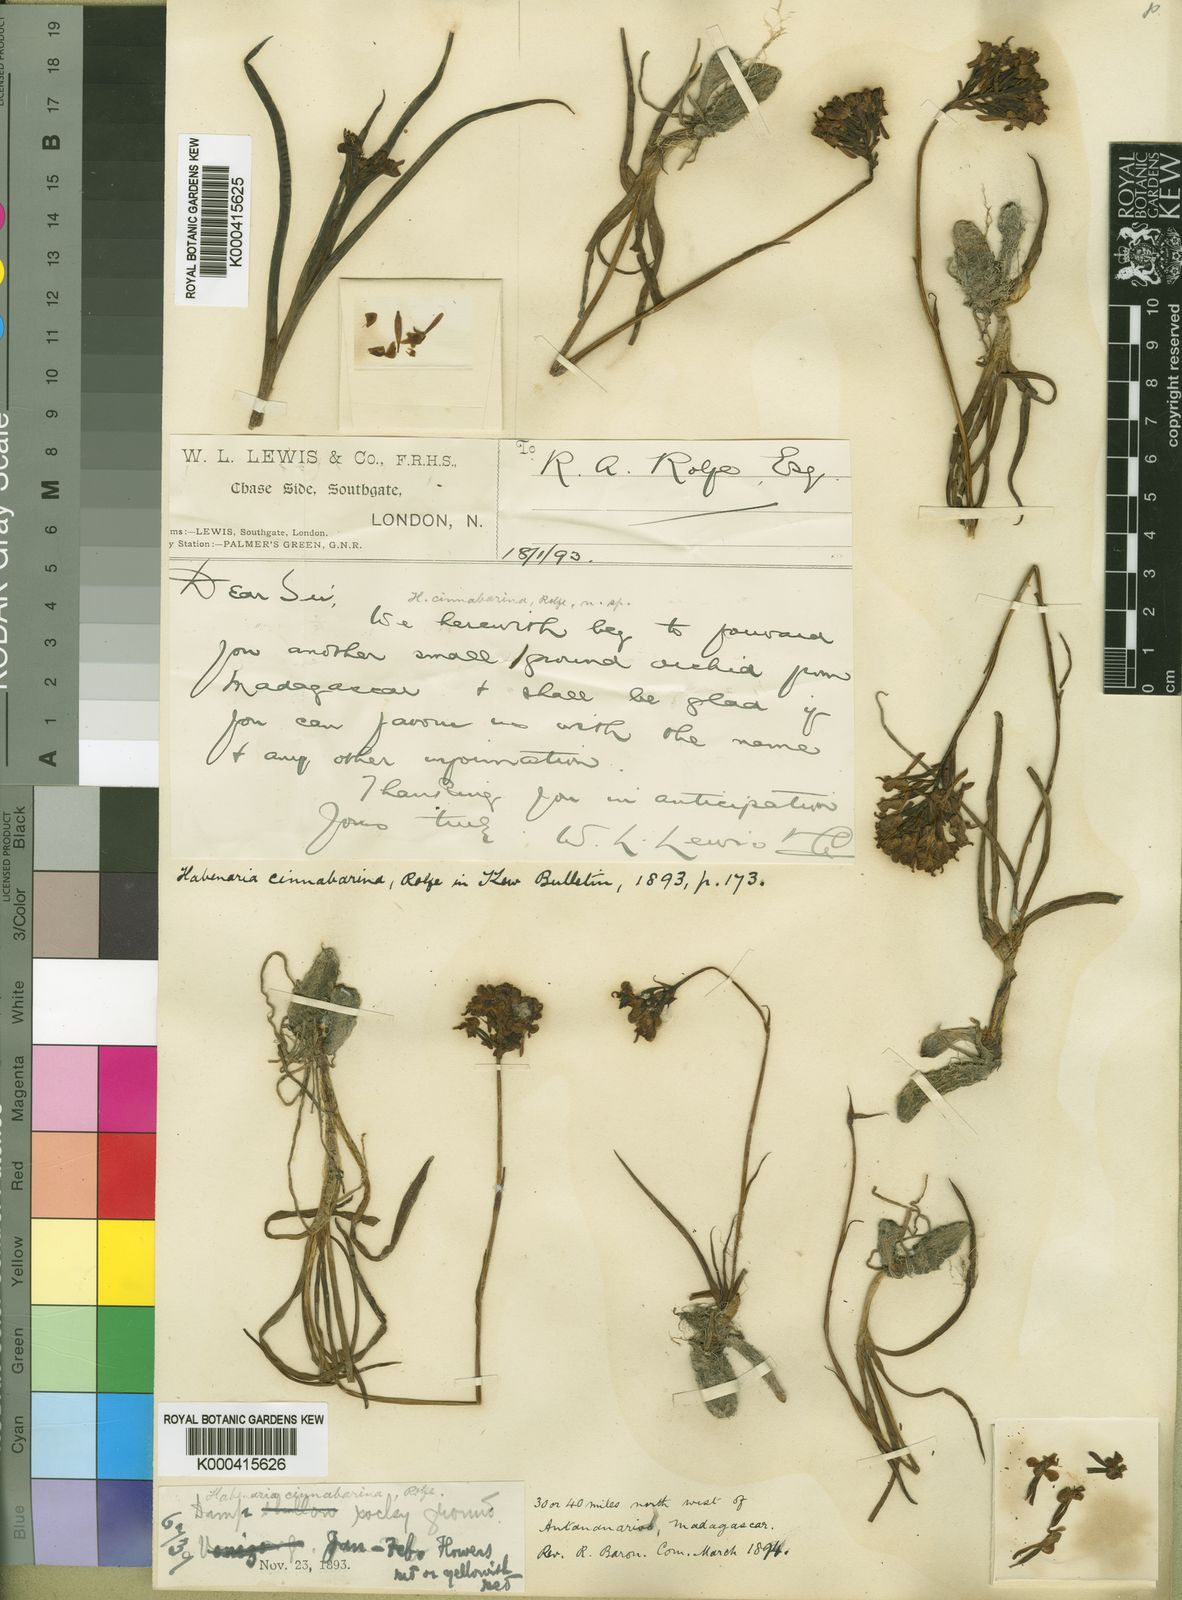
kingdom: Plantae
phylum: Tracheophyta
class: Liliopsida
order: Asparagales
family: Orchidaceae
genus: Cynorkis
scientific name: Cynorkis cinnabarina
